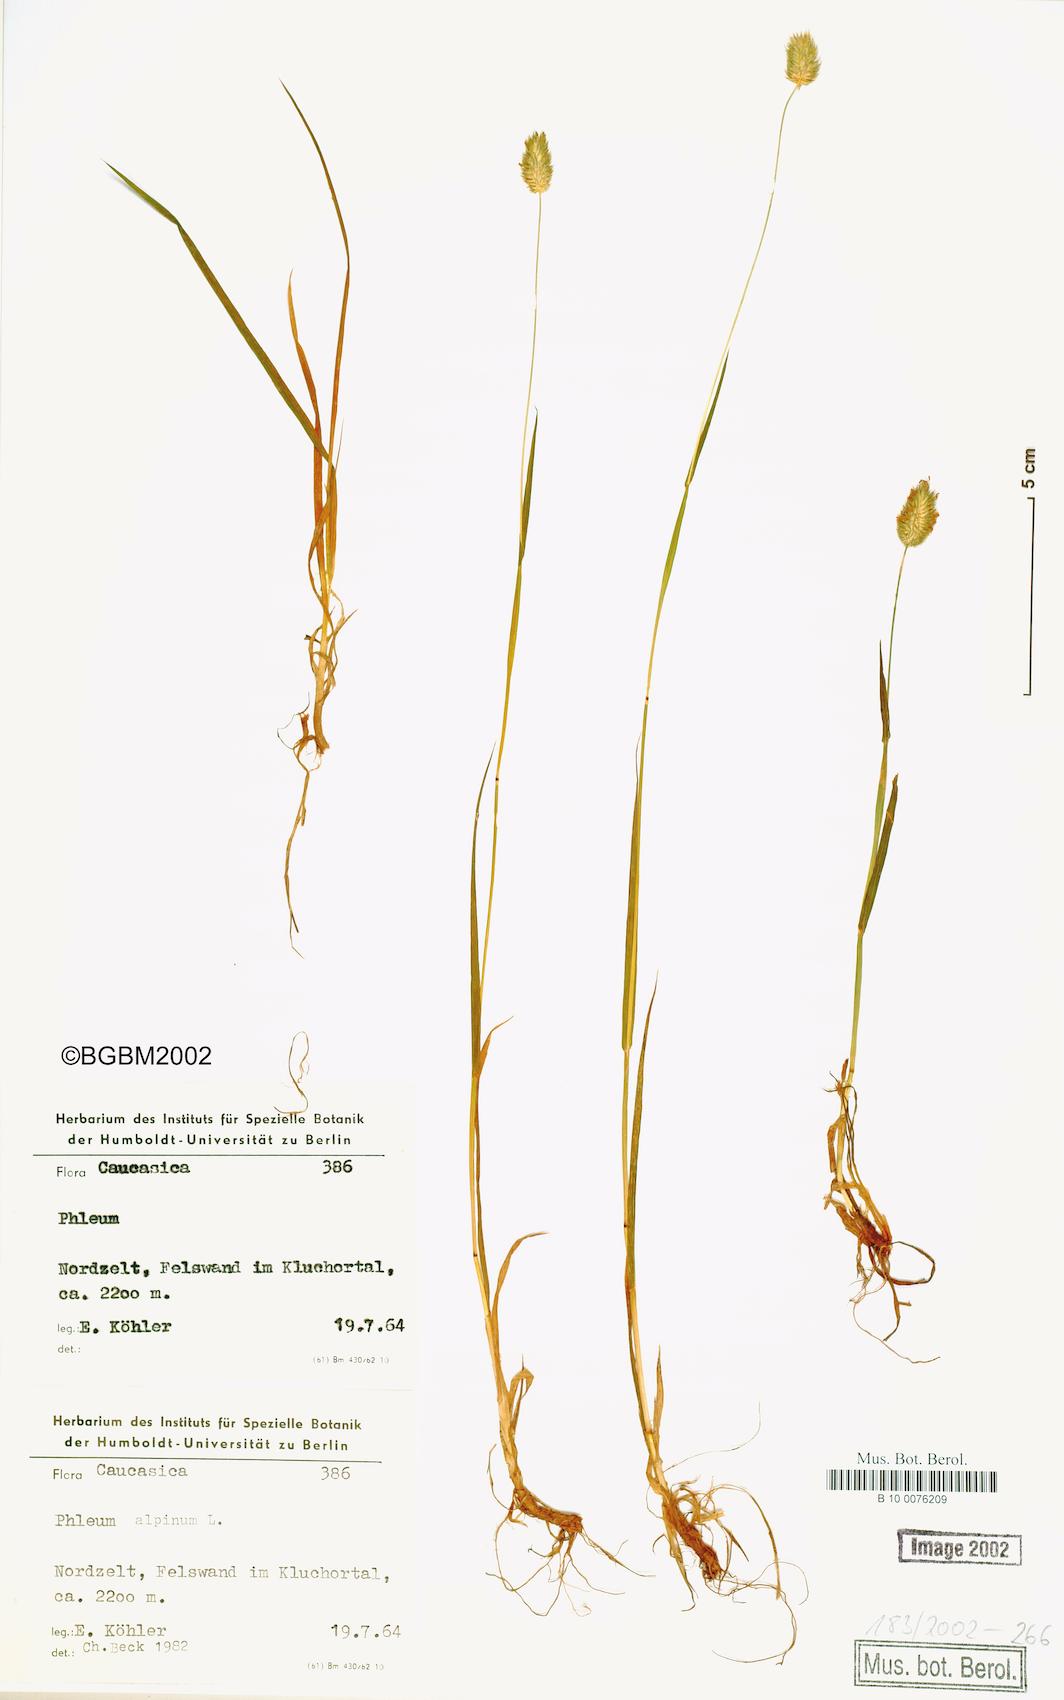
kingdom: Plantae
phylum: Tracheophyta
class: Liliopsida
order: Poales
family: Poaceae
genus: Phleum
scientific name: Phleum alpinum
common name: Alpine cat's-tail
